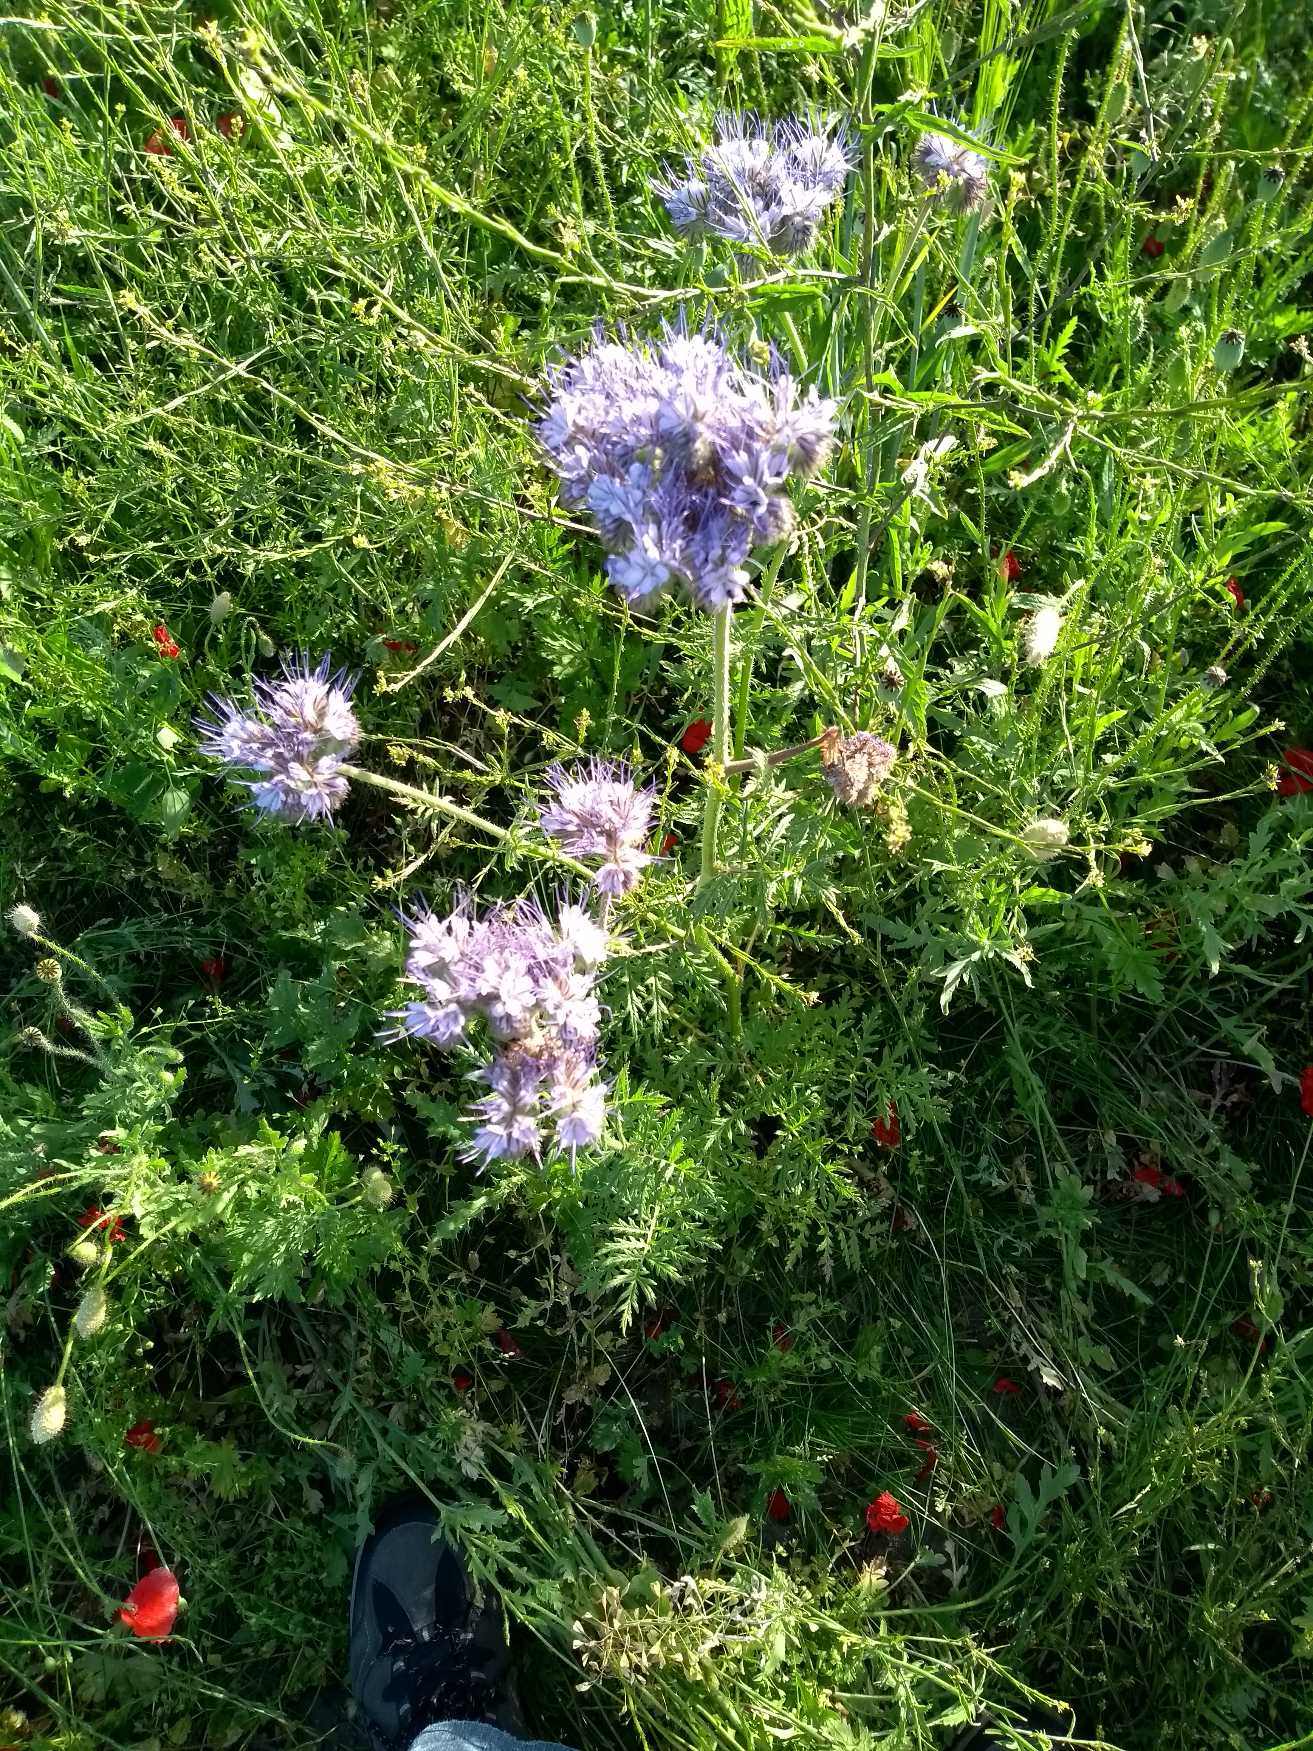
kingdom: Plantae
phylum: Tracheophyta
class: Magnoliopsida
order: Boraginales
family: Hydrophyllaceae
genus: Phacelia
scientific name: Phacelia tanacetifolia
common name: Honningurt
